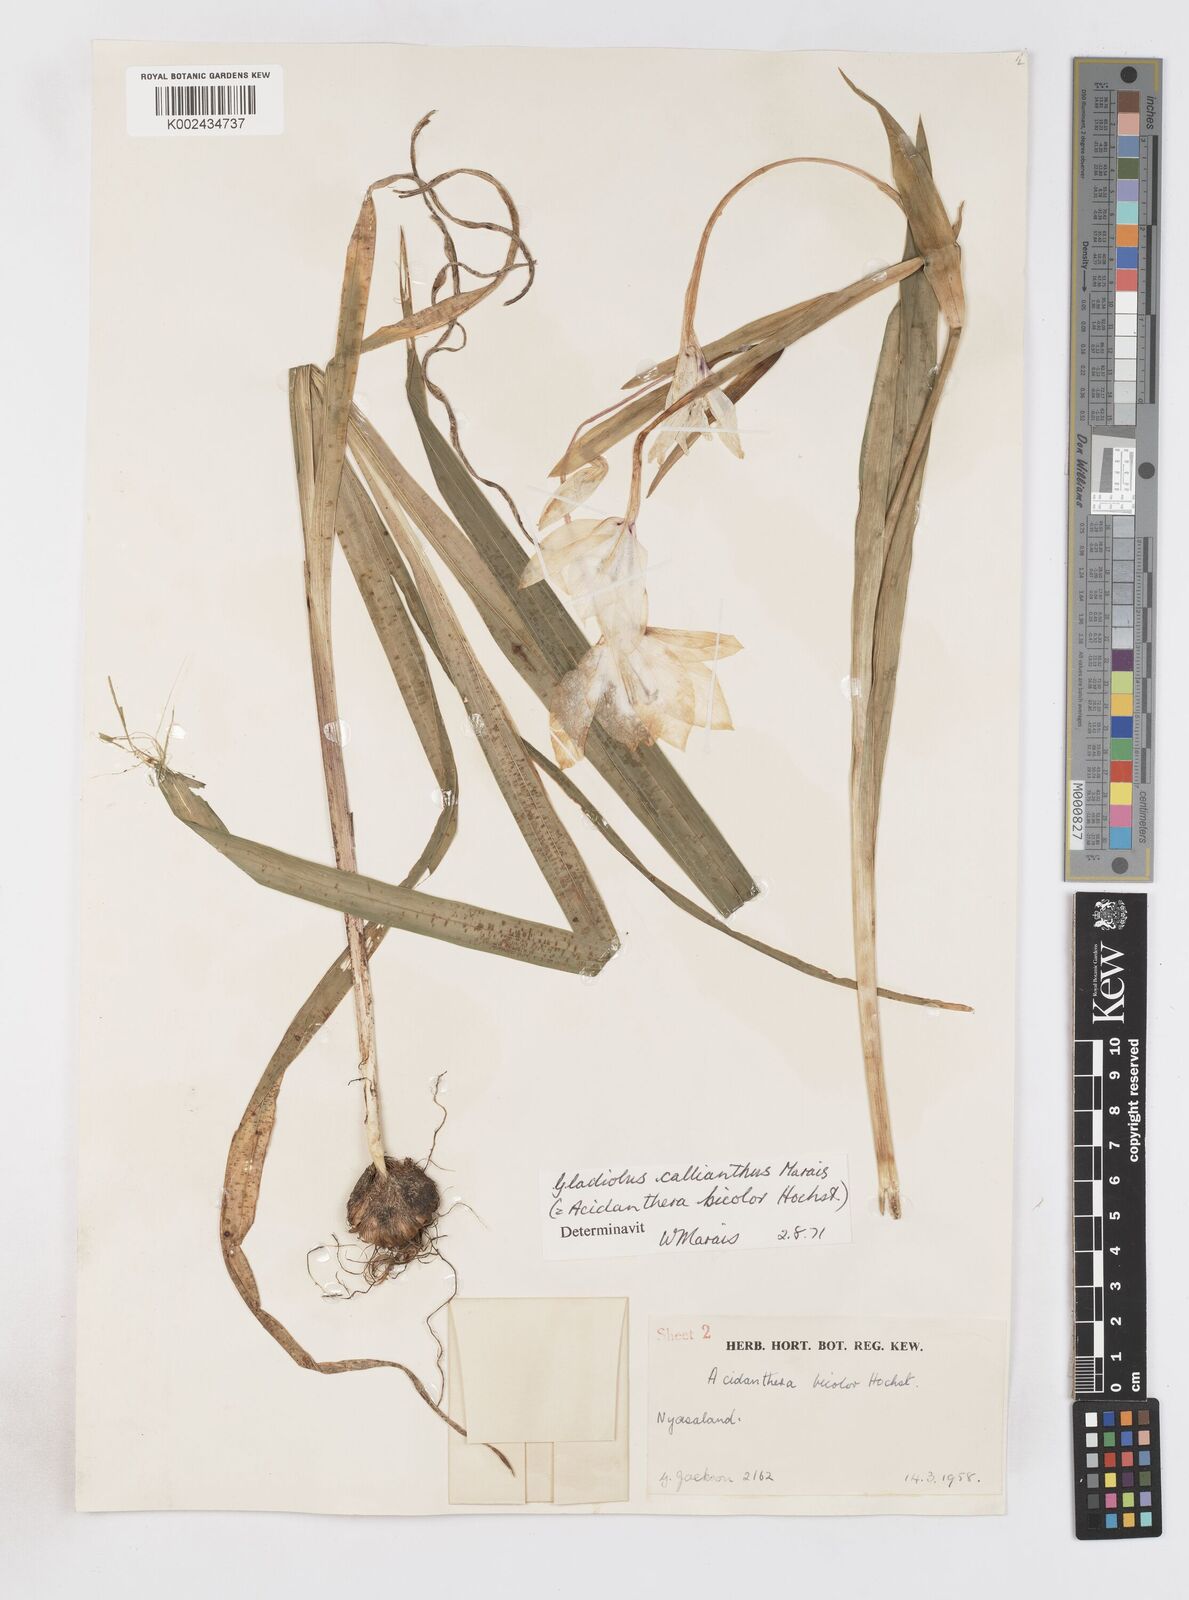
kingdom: Plantae
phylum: Tracheophyta
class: Liliopsida
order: Asparagales
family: Iridaceae
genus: Gladiolus
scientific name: Gladiolus murielae
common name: Acidanthera
